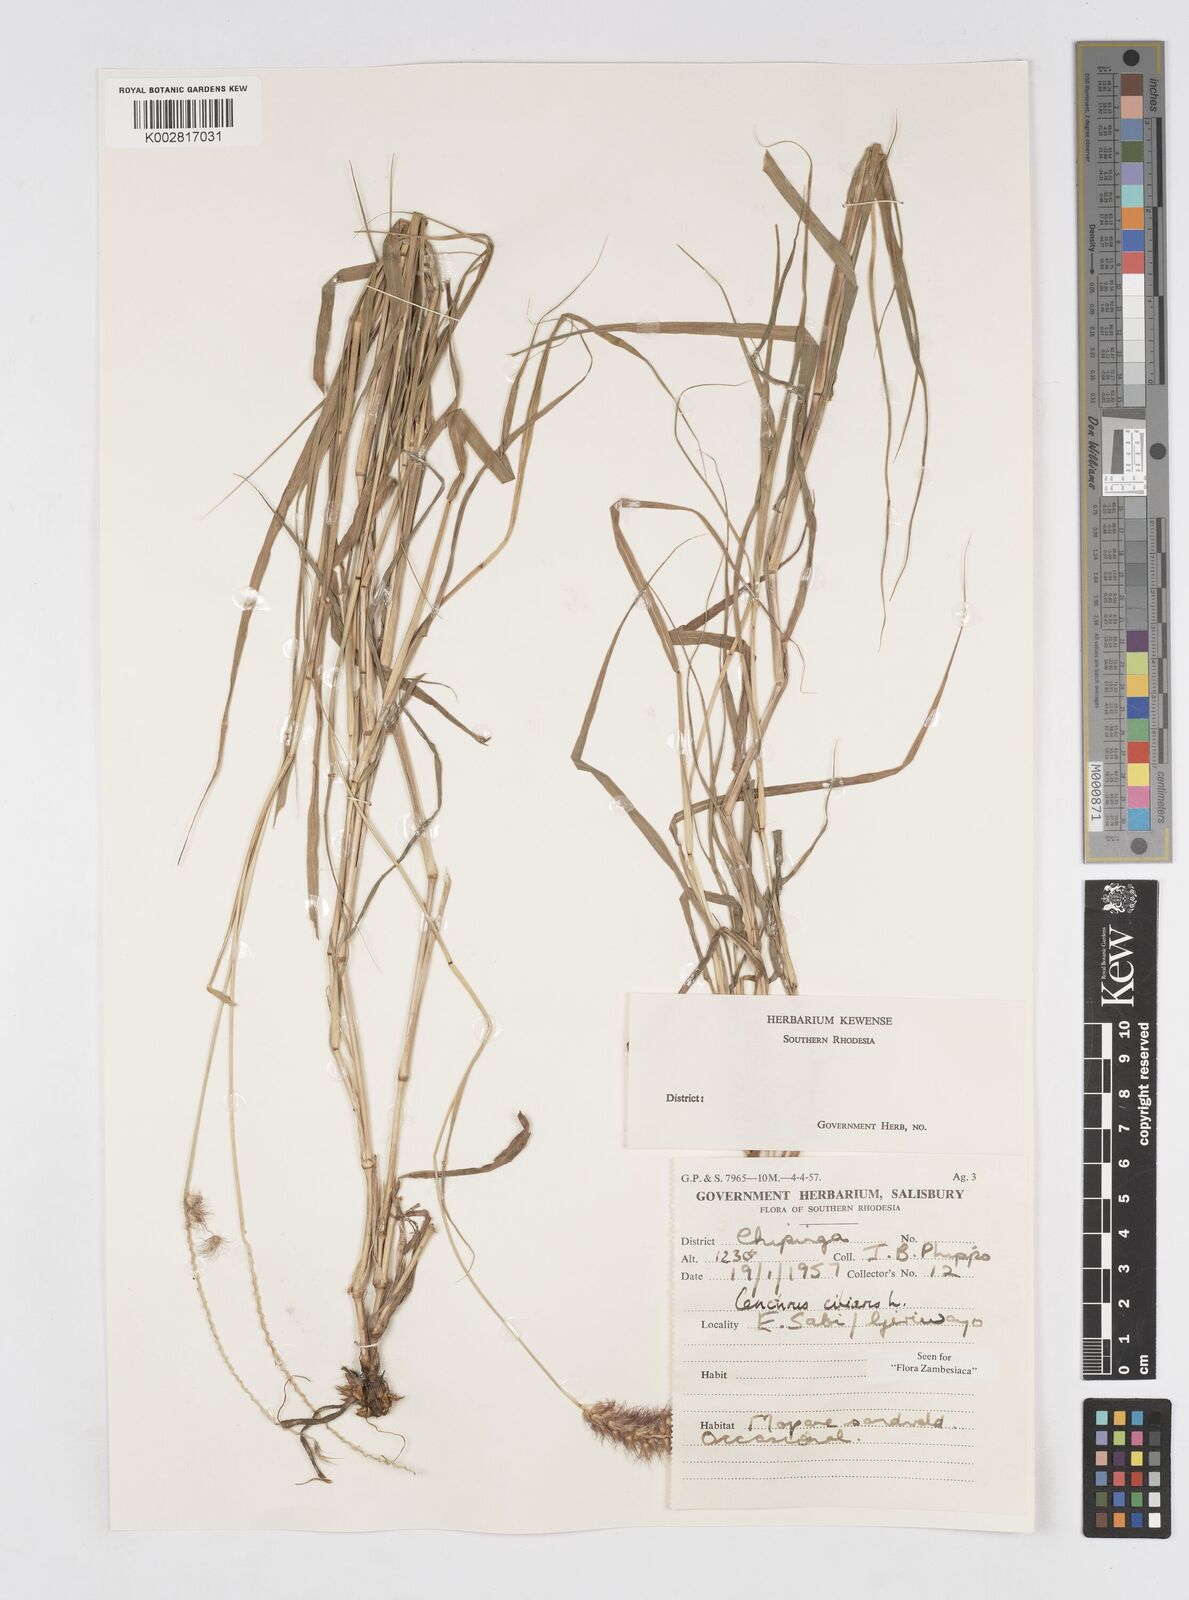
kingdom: Plantae
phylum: Tracheophyta
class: Liliopsida
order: Poales
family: Poaceae
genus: Cenchrus
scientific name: Cenchrus ciliaris
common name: Buffelgrass
